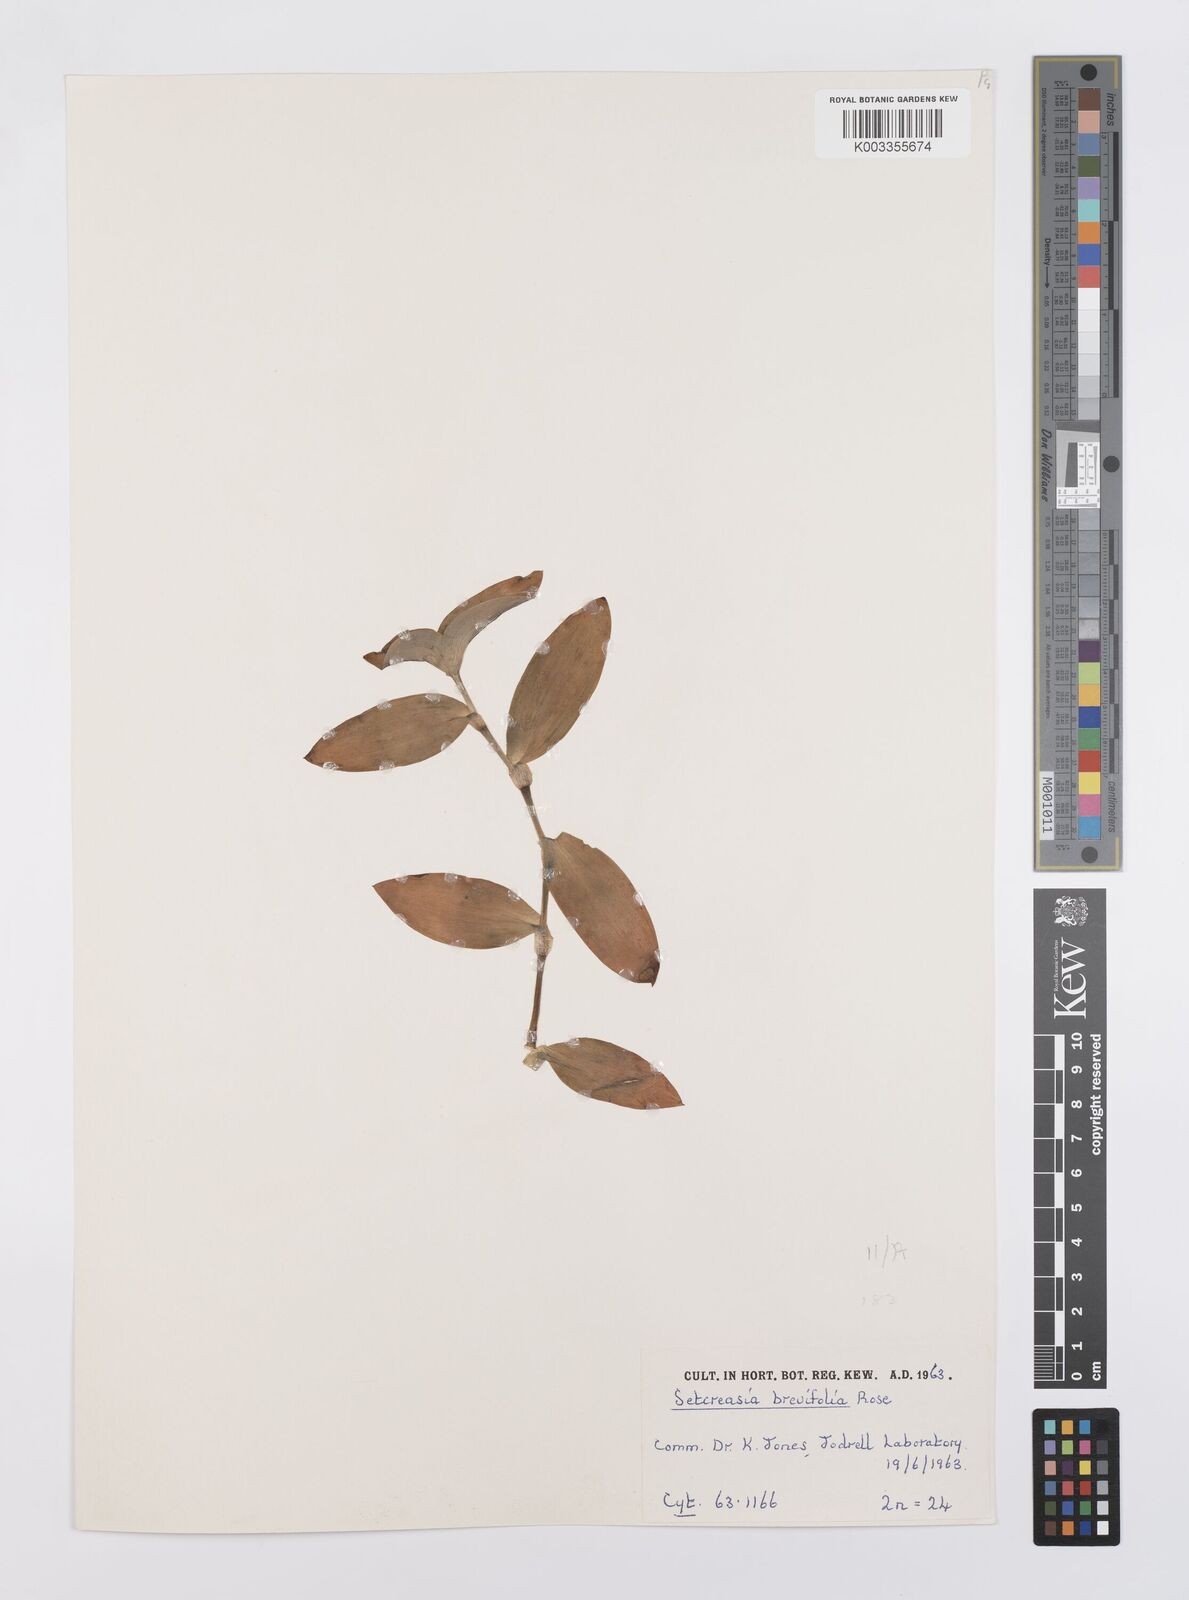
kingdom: Plantae
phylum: Tracheophyta
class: Liliopsida
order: Commelinales
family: Commelinaceae
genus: Tradescantia
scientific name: Tradescantia pallida
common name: Purpleheart
